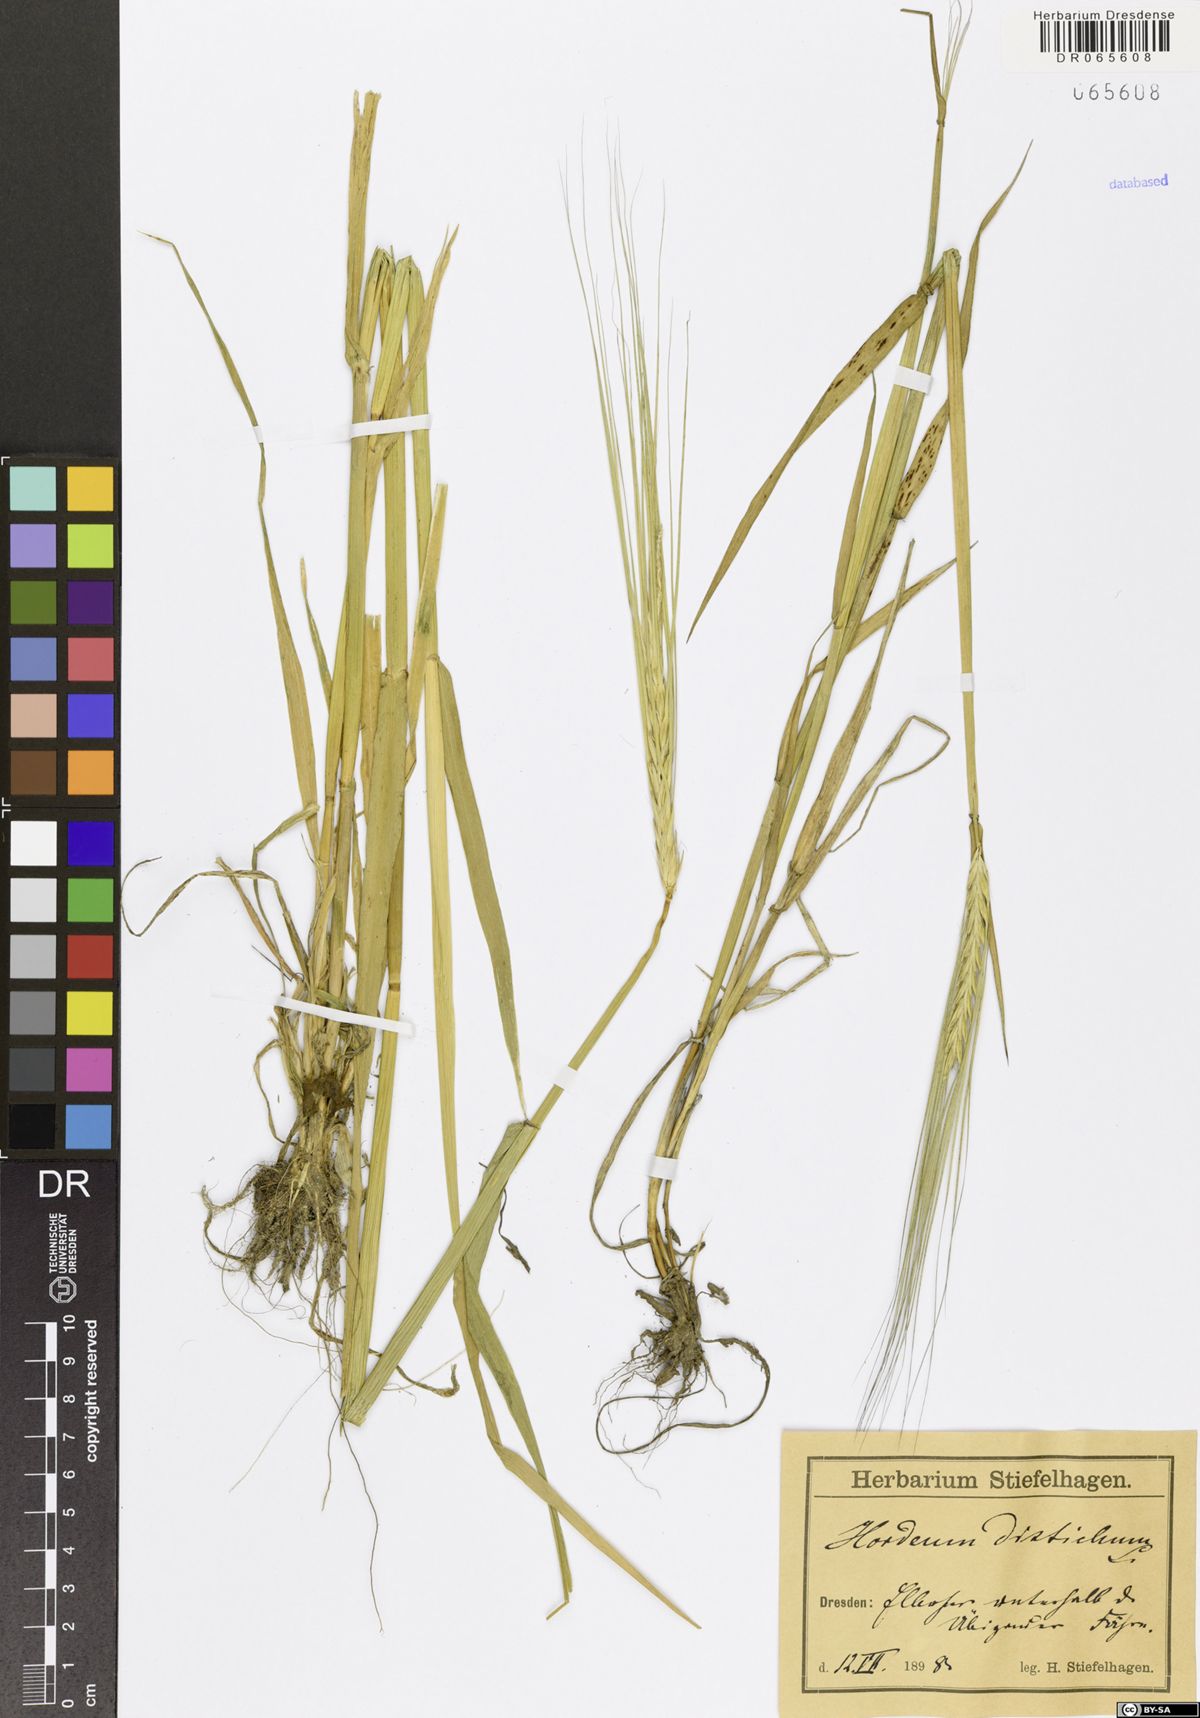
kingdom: Plantae
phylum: Tracheophyta
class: Liliopsida
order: Poales
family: Poaceae
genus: Hordeum
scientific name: Hordeum distichon
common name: Two-rowed barley
